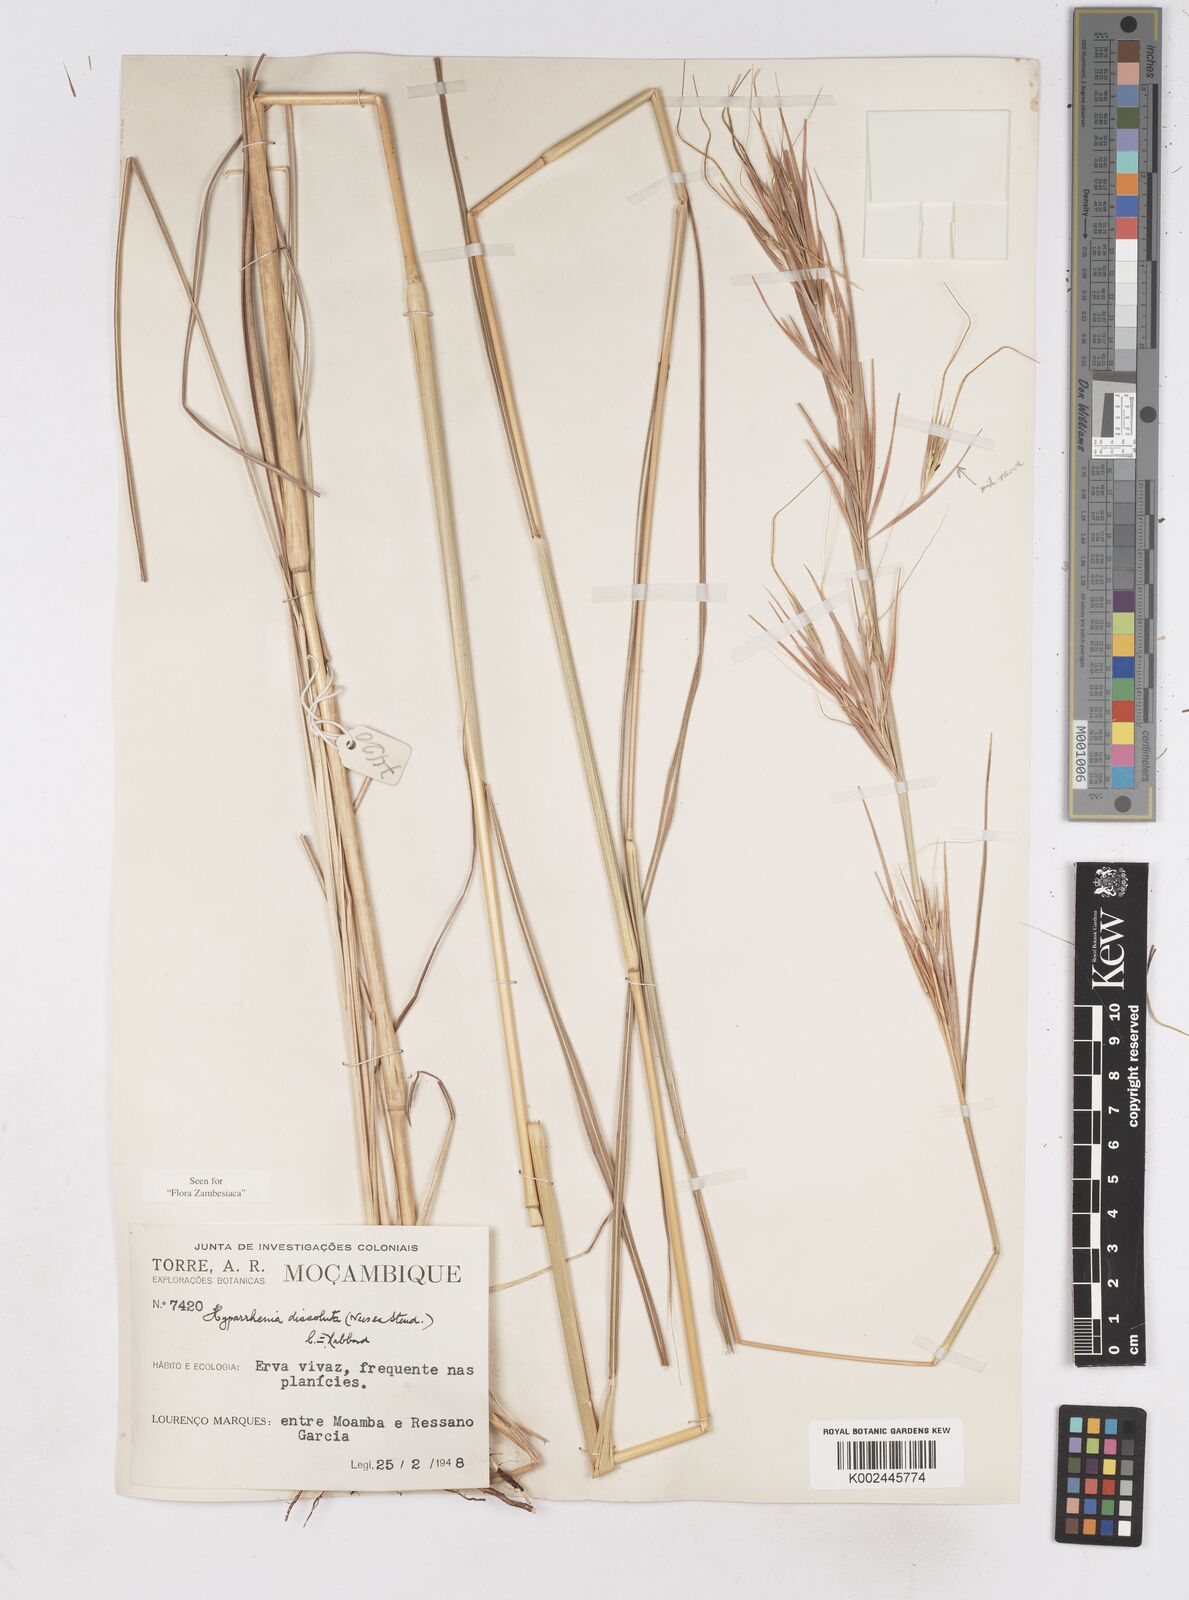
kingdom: Plantae
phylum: Tracheophyta
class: Liliopsida
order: Poales
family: Poaceae
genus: Hyperthelia
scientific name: Hyperthelia dissoluta
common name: Yellow thatching grass
